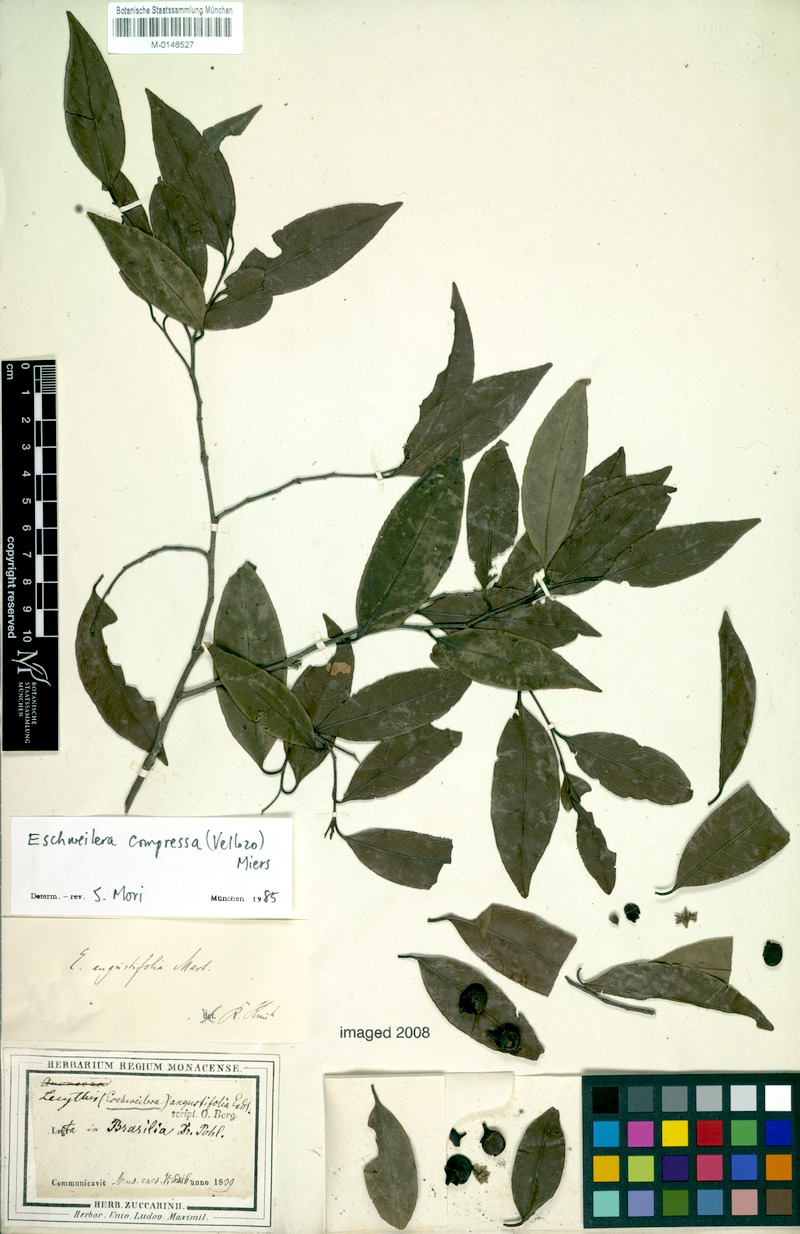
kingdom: Plantae
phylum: Tracheophyta
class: Magnoliopsida
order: Ericales
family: Lecythidaceae
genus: Eschweilera
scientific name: Eschweilera compressa
